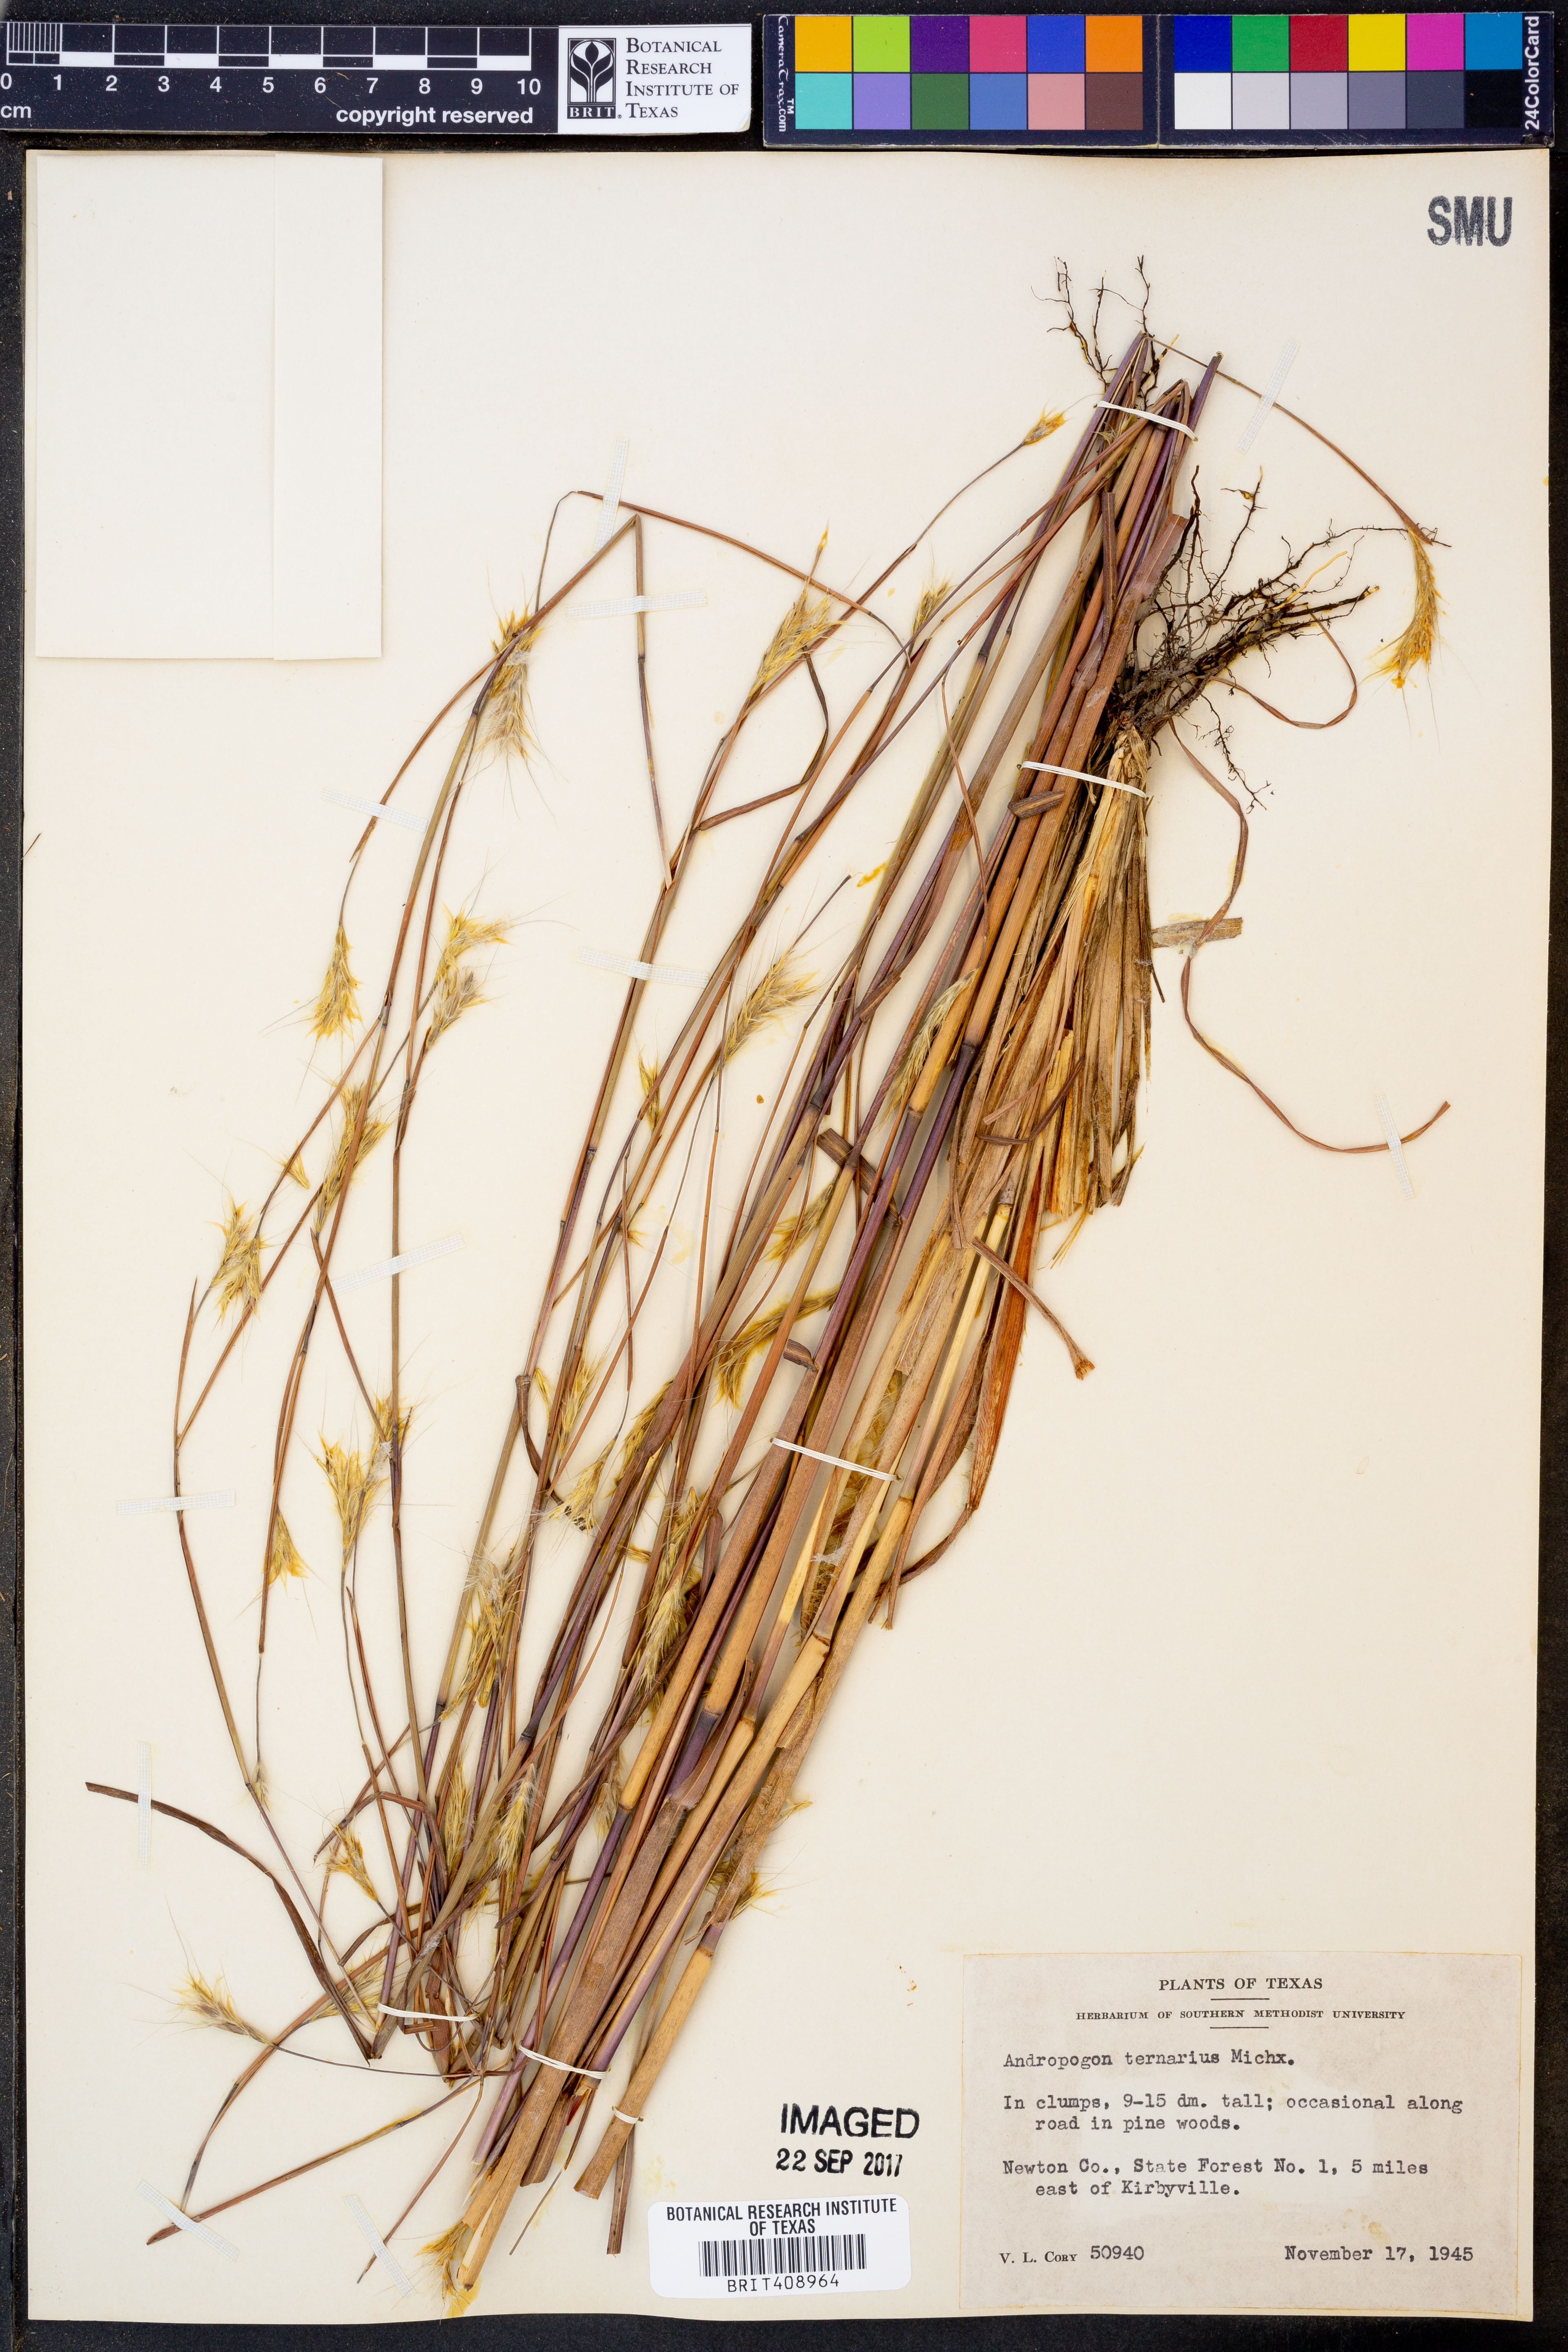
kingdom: Plantae
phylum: Tracheophyta
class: Liliopsida
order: Poales
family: Poaceae
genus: Andropogon
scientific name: Andropogon ternarius
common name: Split bluestem
